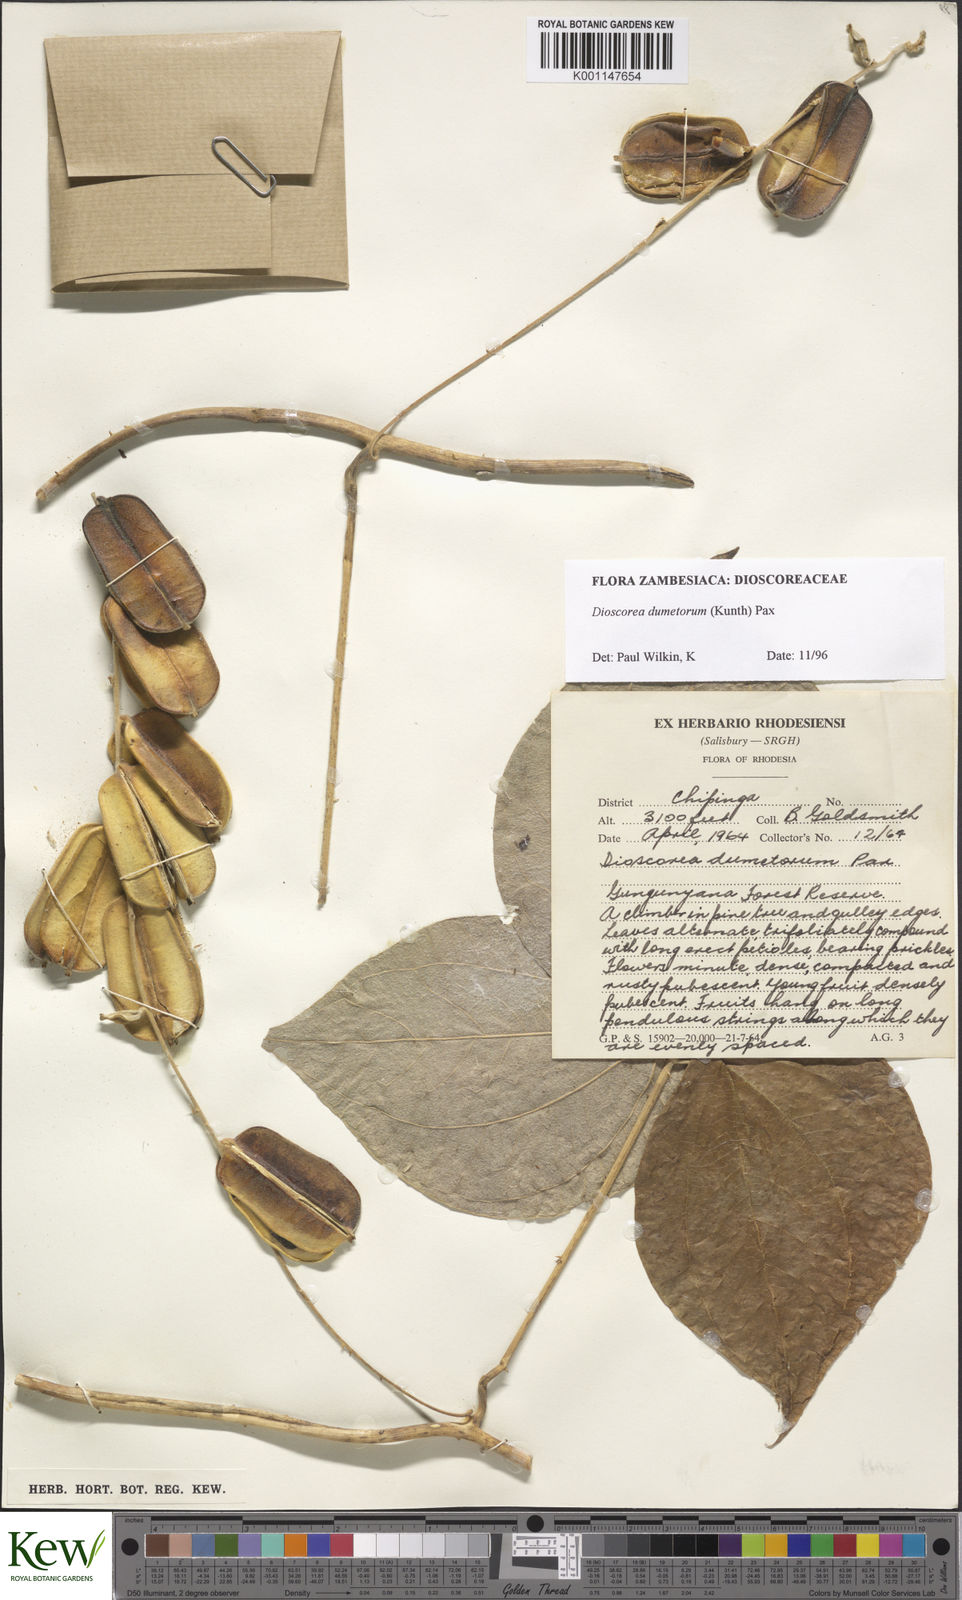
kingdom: Plantae
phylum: Tracheophyta
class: Liliopsida
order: Dioscoreales
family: Dioscoreaceae
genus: Dioscorea
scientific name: Dioscorea dumetorum
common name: African bitter yam
